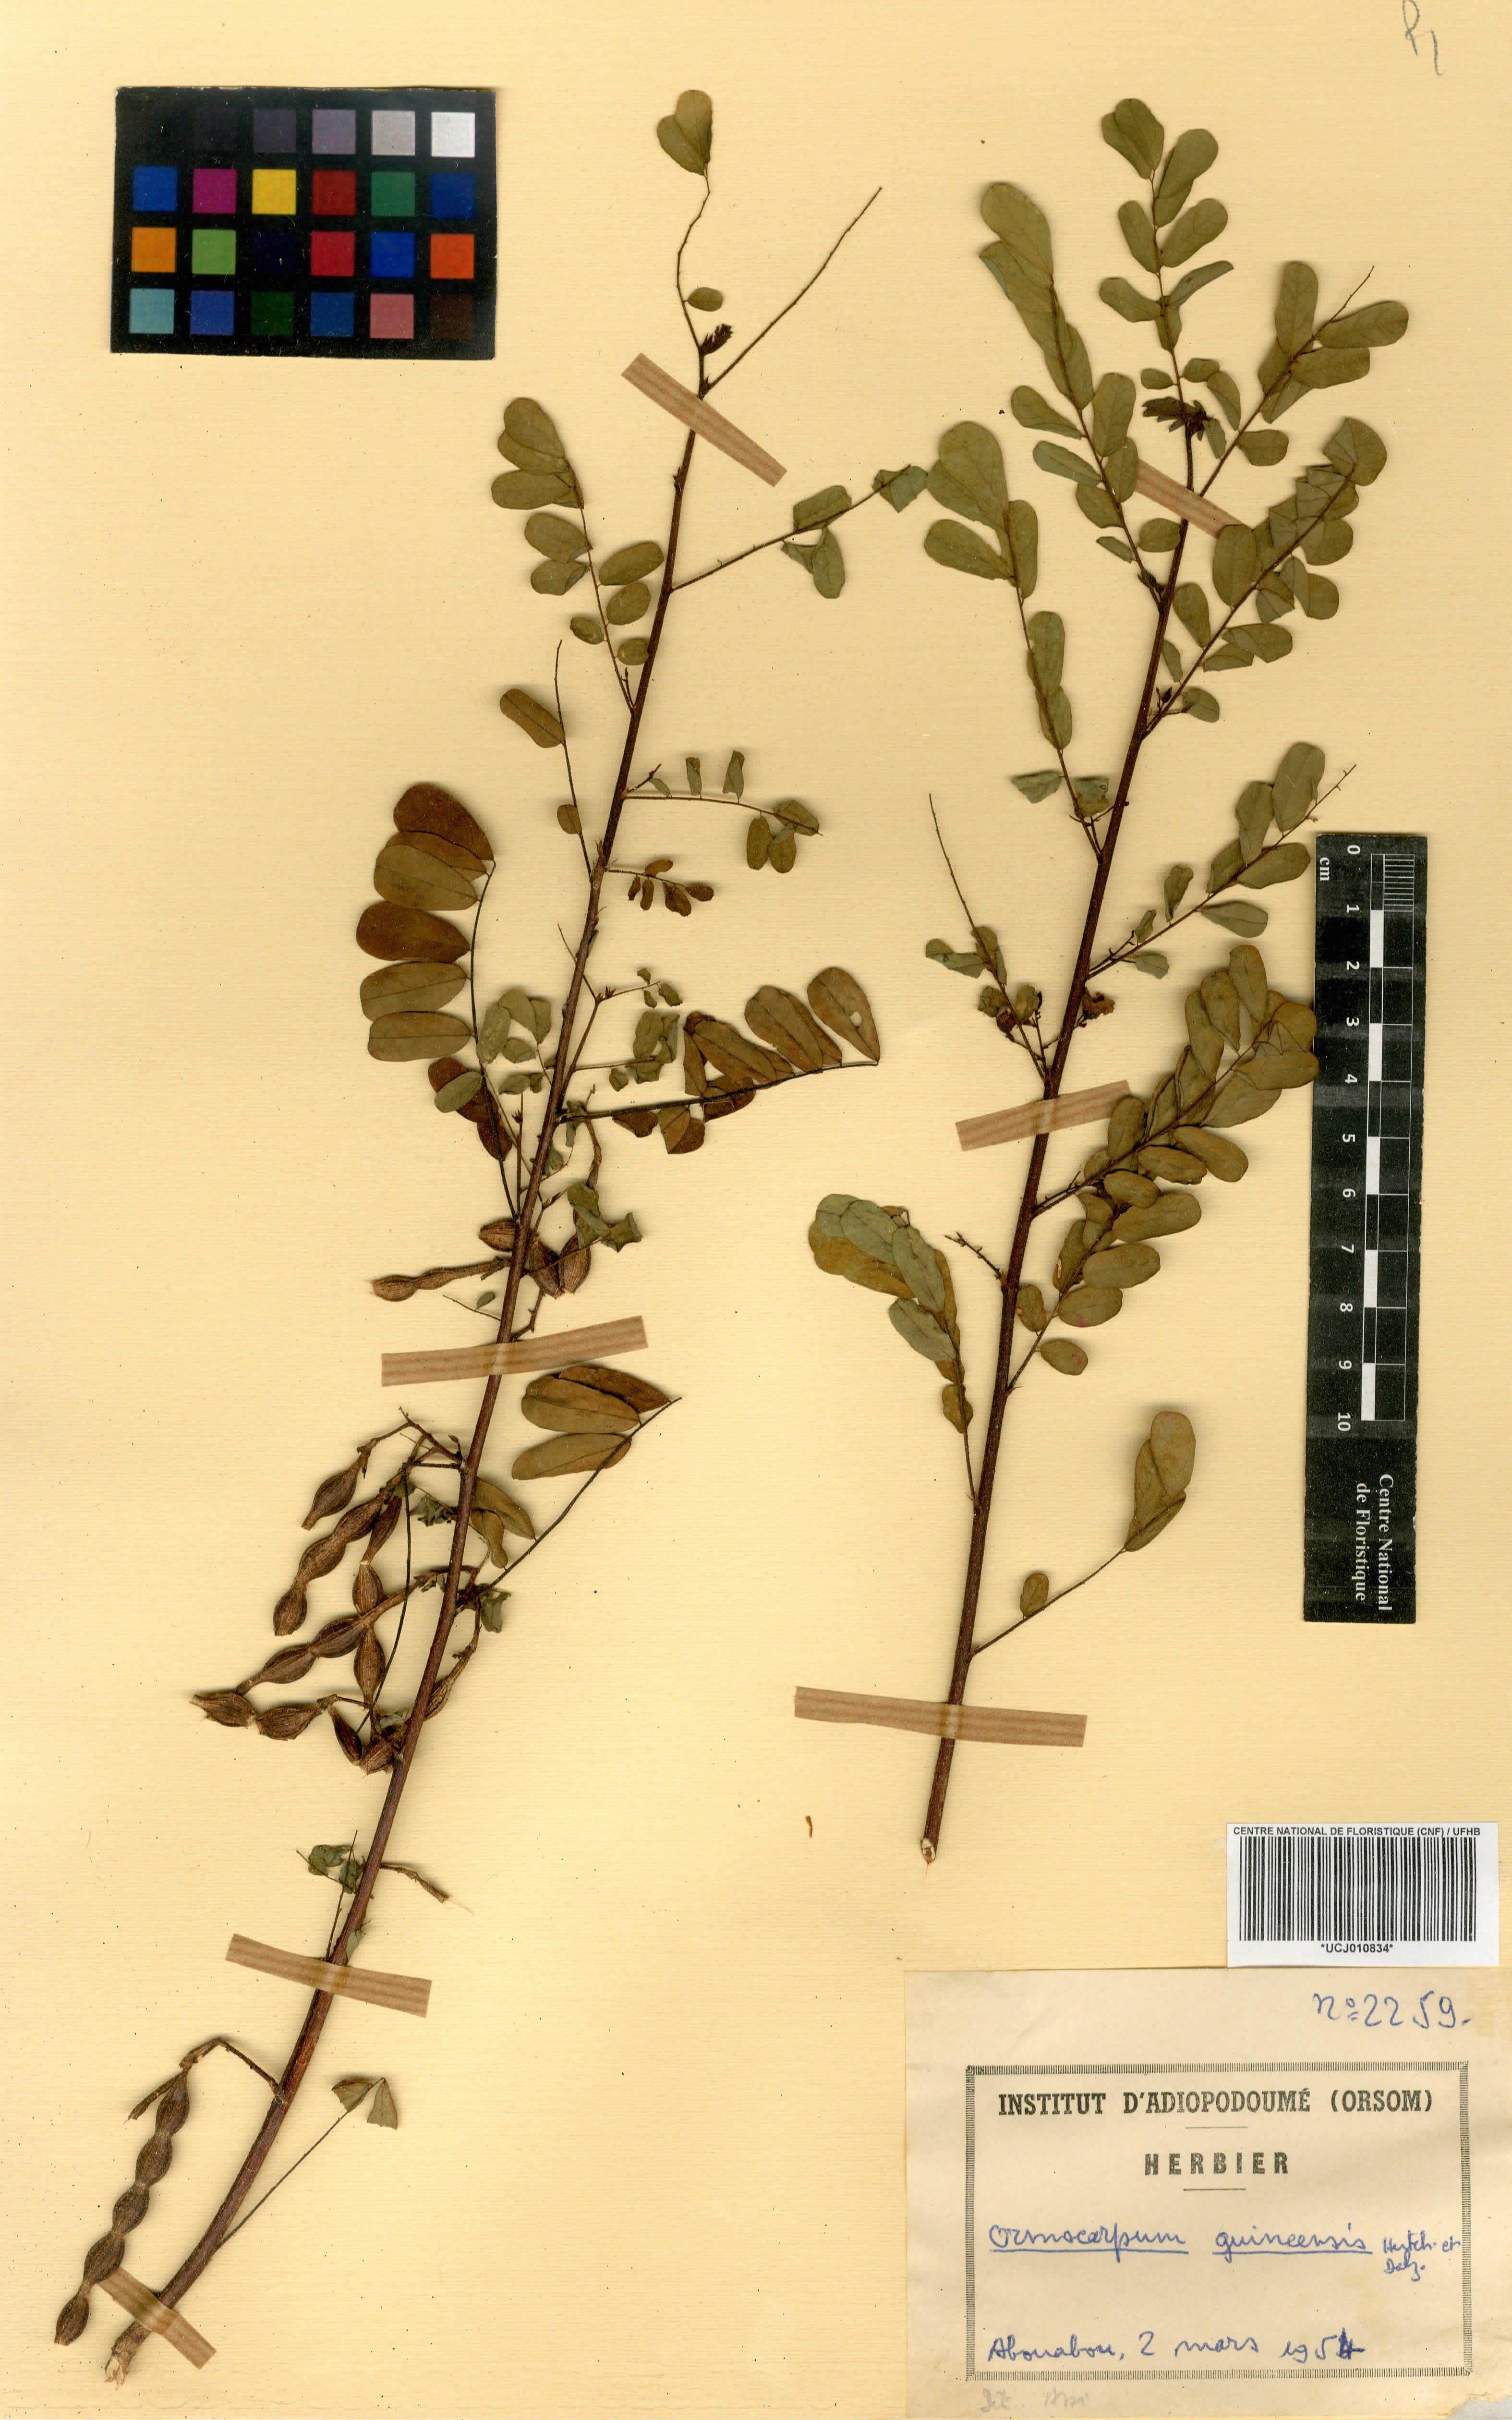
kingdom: Plantae
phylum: Tracheophyta
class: Magnoliopsida
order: Fabales
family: Fabaceae
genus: Ormocarpum
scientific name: Ormocarpum sennoides
